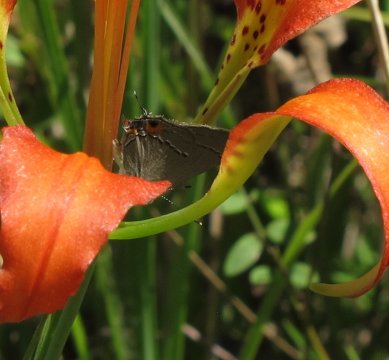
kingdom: Animalia
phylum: Arthropoda
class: Insecta
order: Lepidoptera
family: Lycaenidae
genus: Strymon
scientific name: Strymon melinus
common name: Gray Hairstreak
